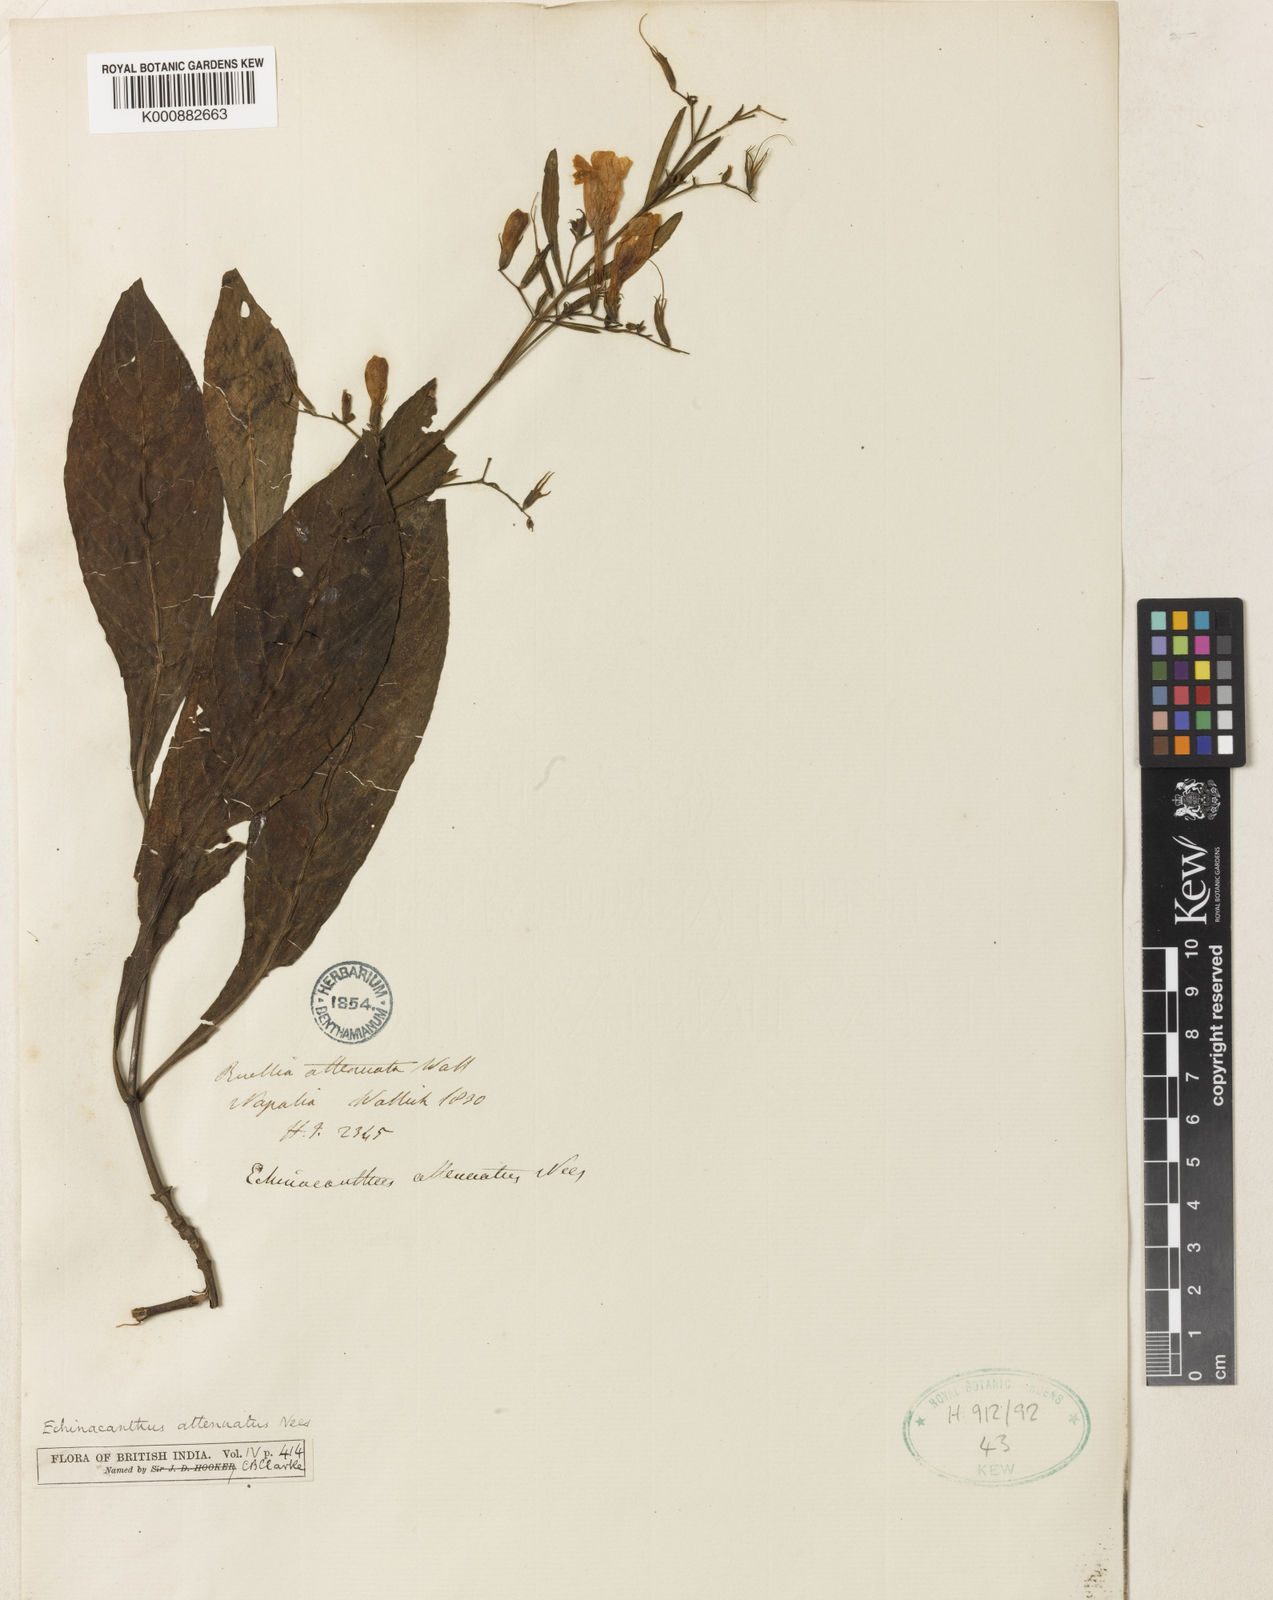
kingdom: Plantae
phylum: Tracheophyta
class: Magnoliopsida
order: Lamiales
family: Acanthaceae
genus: Echinacanthus
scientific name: Echinacanthus attenuatus
